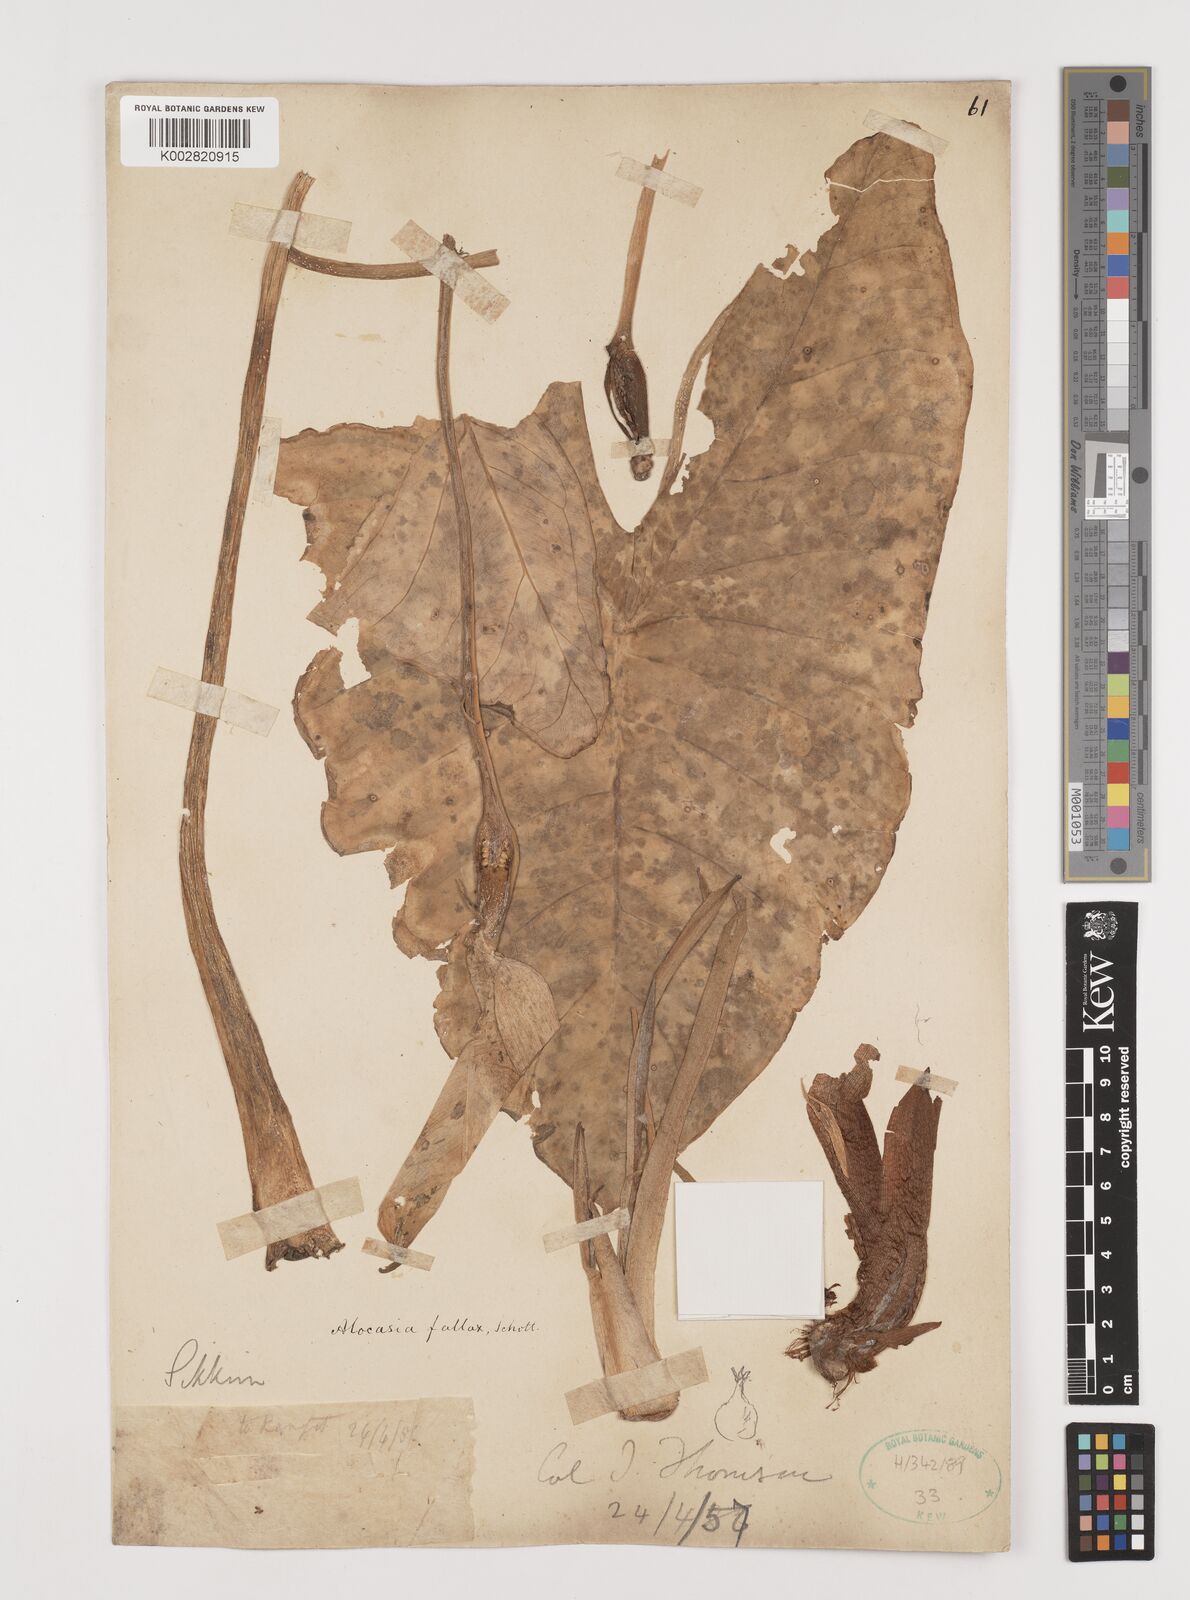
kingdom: Plantae
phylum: Tracheophyta
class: Liliopsida
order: Alismatales
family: Araceae
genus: Alocasia
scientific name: Alocasia fallax
